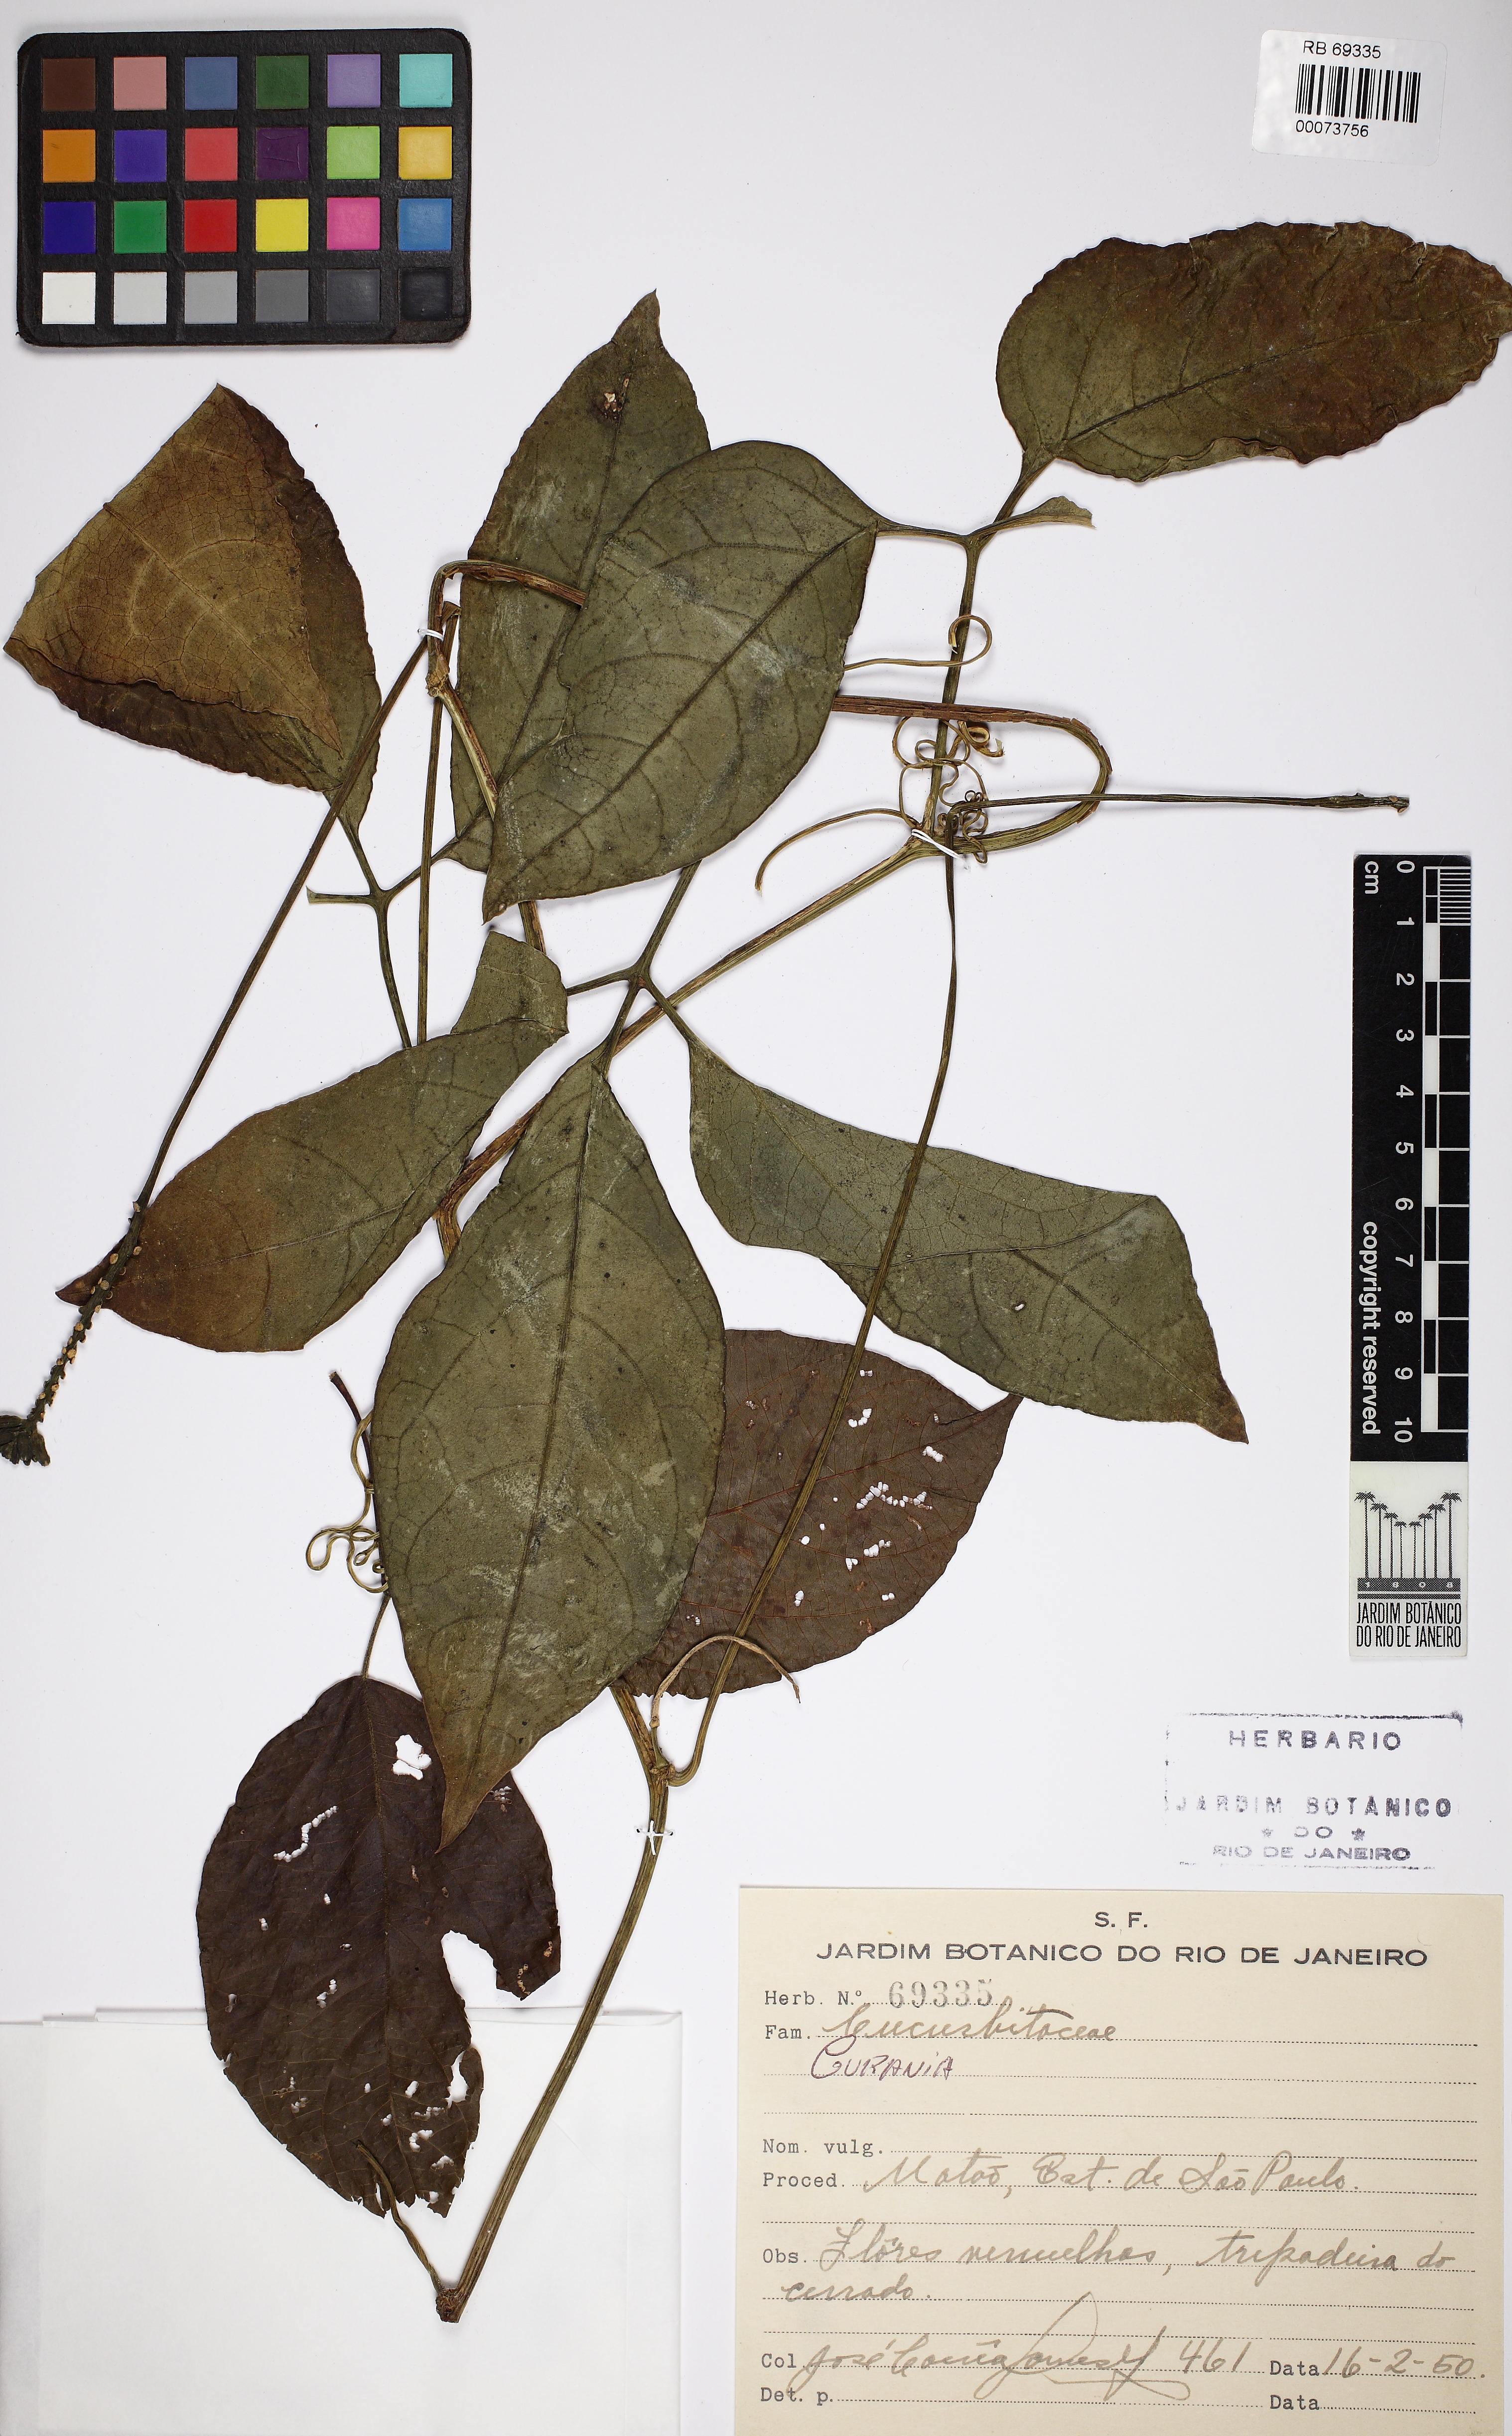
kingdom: Plantae
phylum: Tracheophyta
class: Magnoliopsida
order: Cucurbitales
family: Cucurbitaceae
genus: Psiguria
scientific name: Psiguria triphylla
